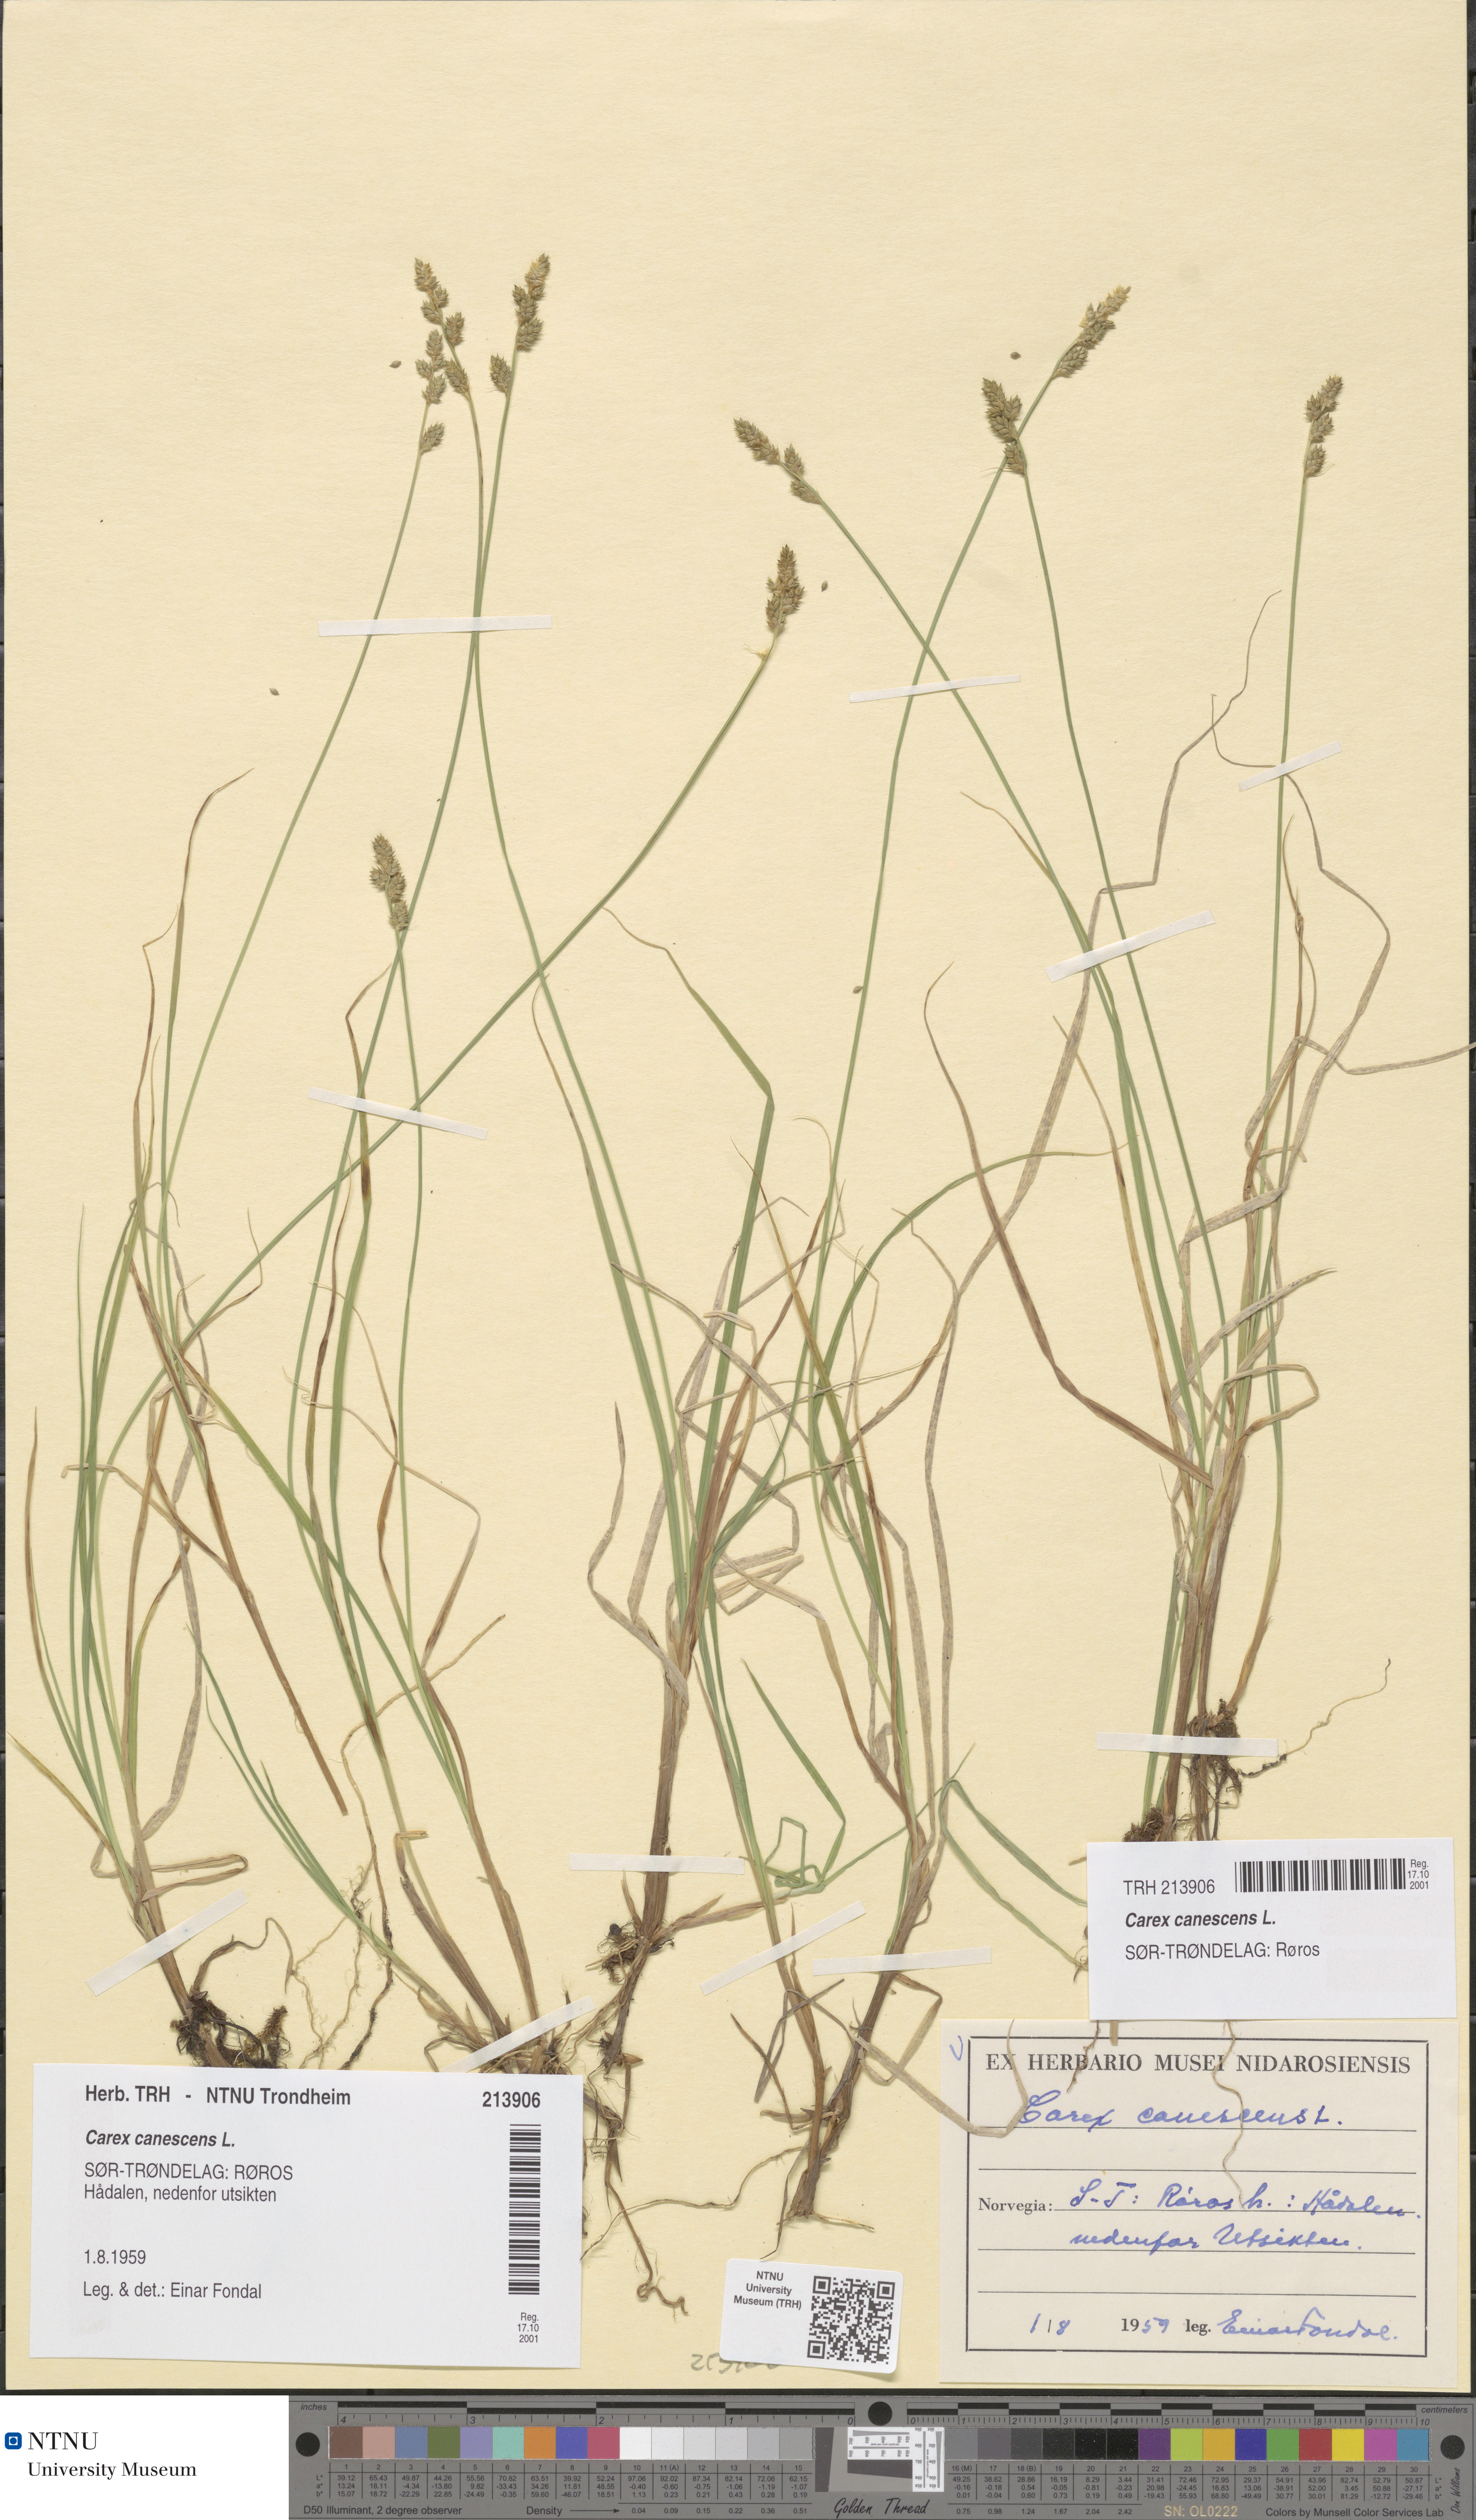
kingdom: Plantae
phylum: Tracheophyta
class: Liliopsida
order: Poales
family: Cyperaceae
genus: Carex
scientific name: Carex canescens
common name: White sedge
